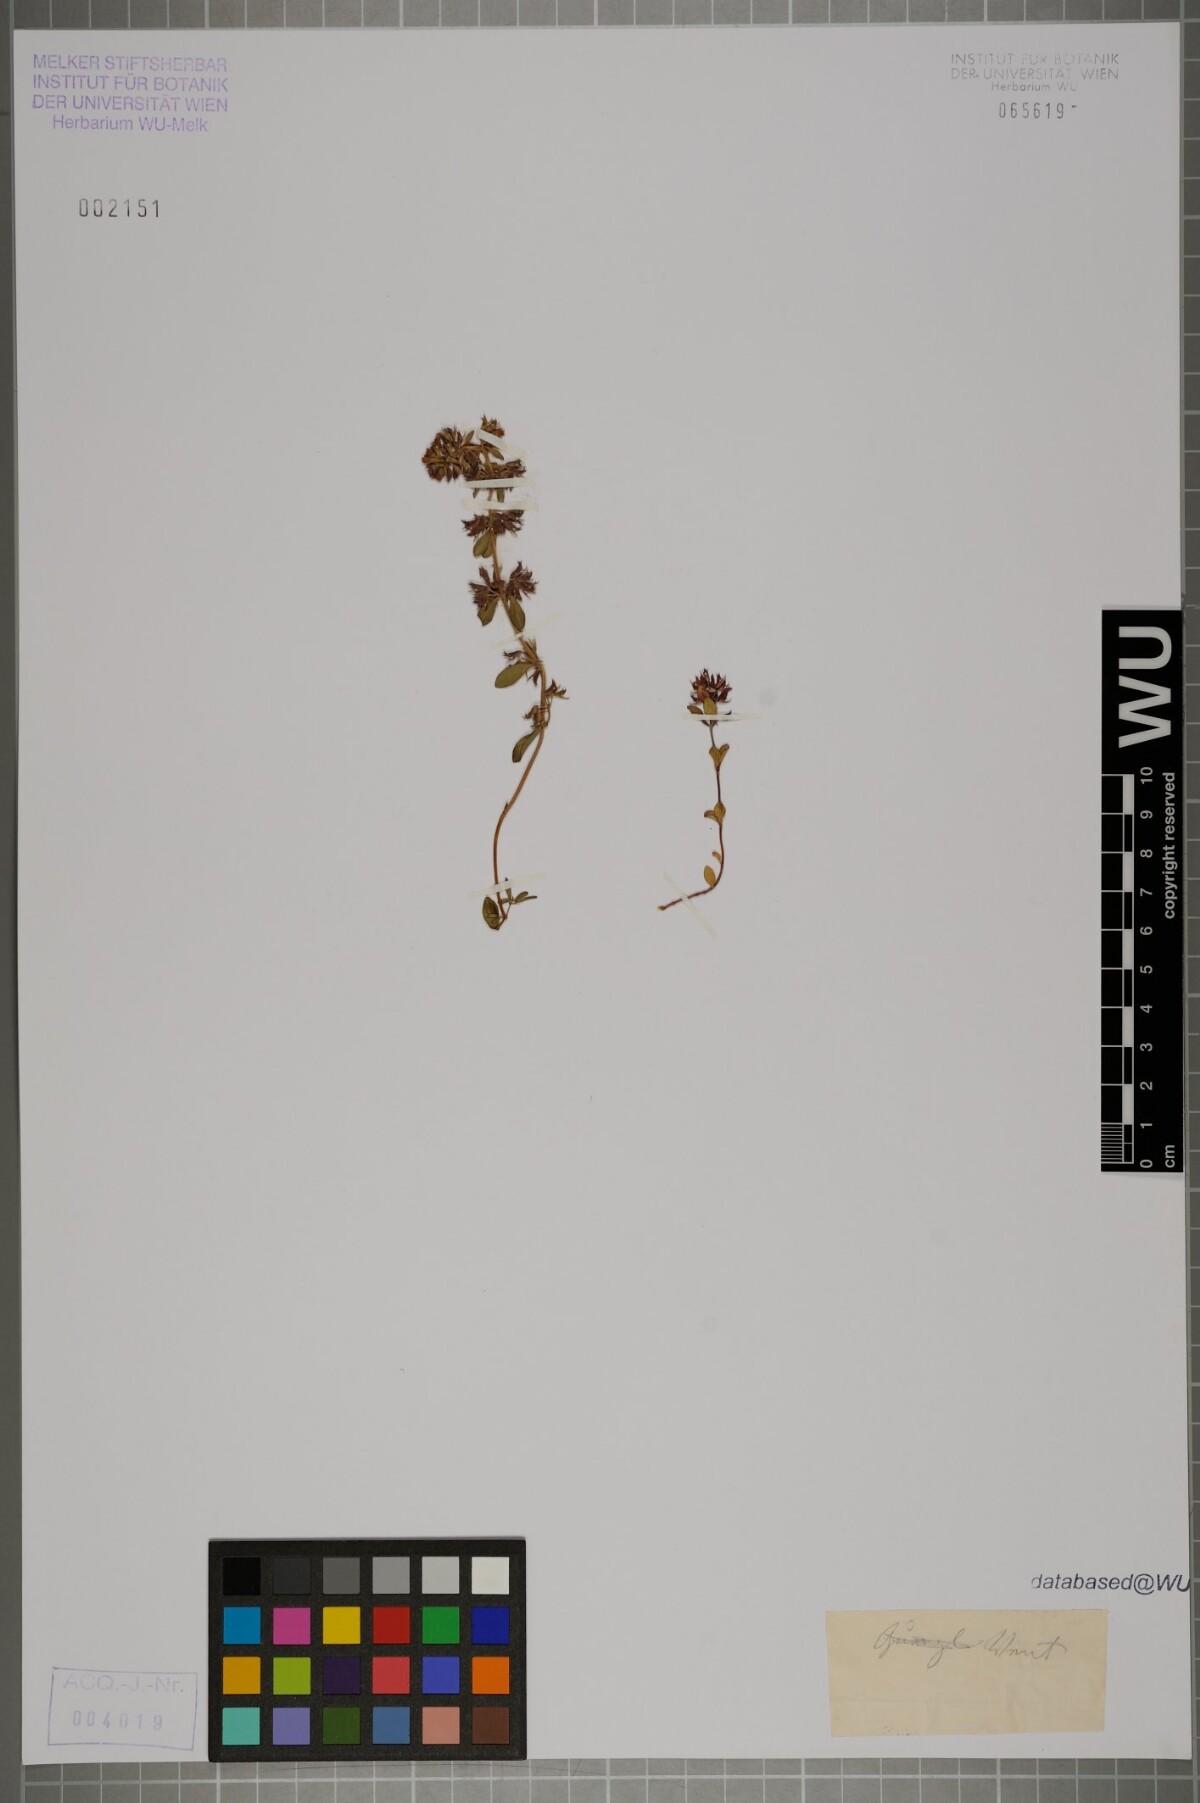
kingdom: Plantae
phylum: Tracheophyta
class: Magnoliopsida
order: Lamiales
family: Lamiaceae
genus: Thymus
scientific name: Thymus
